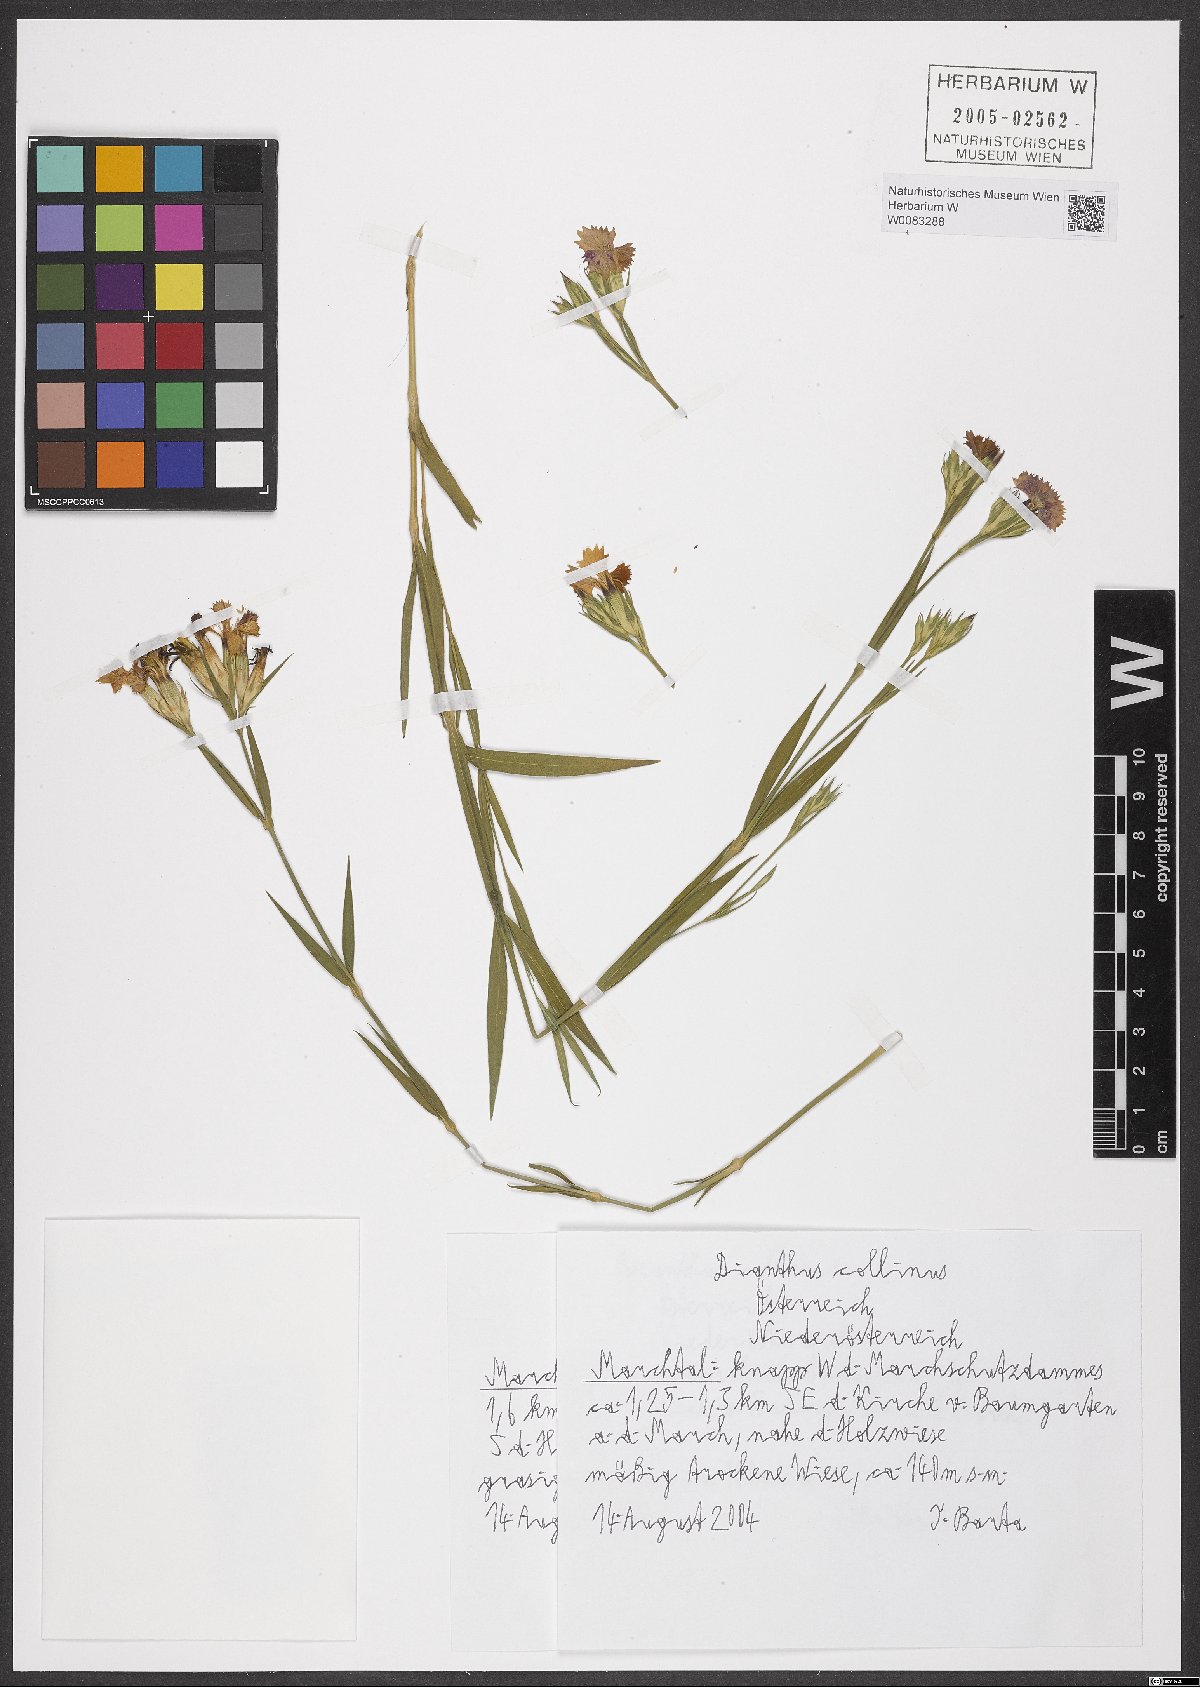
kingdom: Plantae
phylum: Tracheophyta
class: Magnoliopsida
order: Caryophyllales
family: Caryophyllaceae
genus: Dianthus
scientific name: Dianthus collinus
